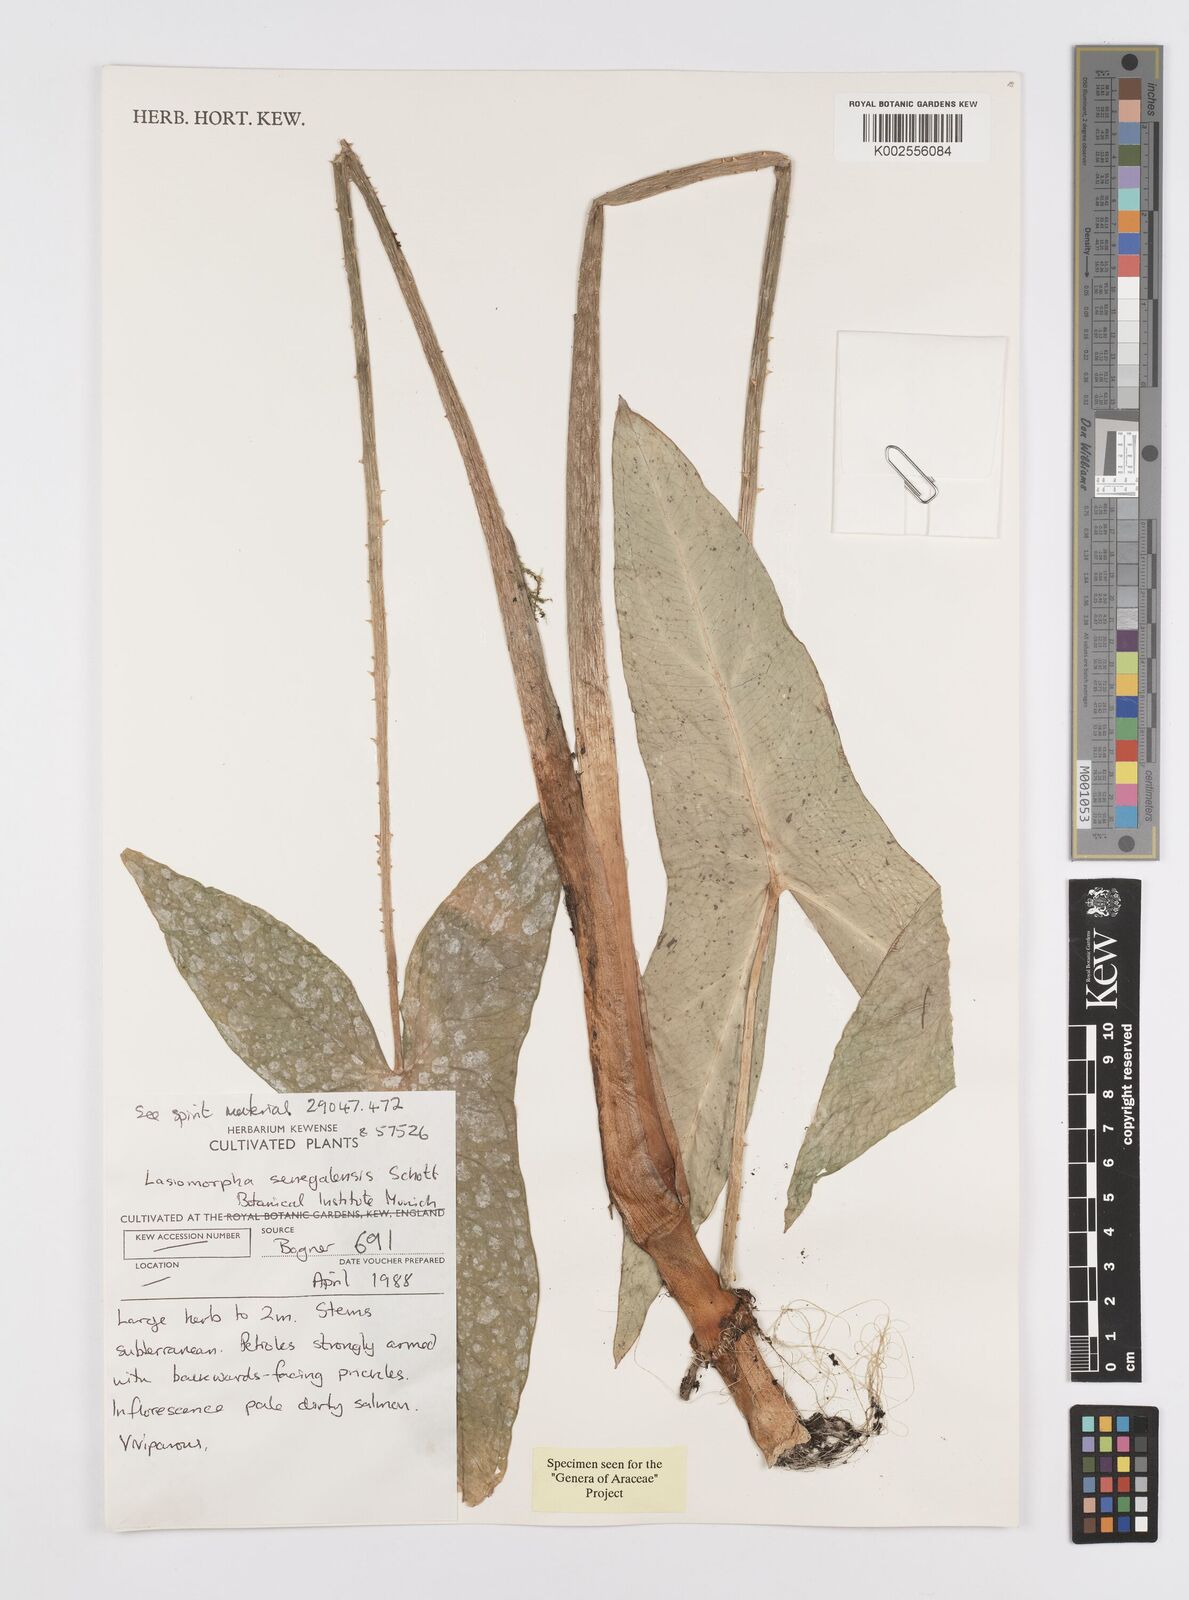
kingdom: Plantae
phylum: Tracheophyta
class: Liliopsida
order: Alismatales
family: Araceae
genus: Lasimorpha
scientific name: Lasimorpha senegalensis
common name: Swamp arum
